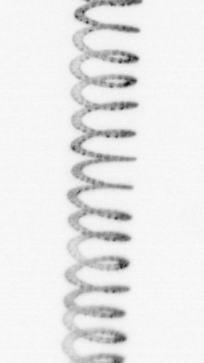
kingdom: Chromista
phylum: Ochrophyta
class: Bacillariophyceae
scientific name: Bacillariophyceae
